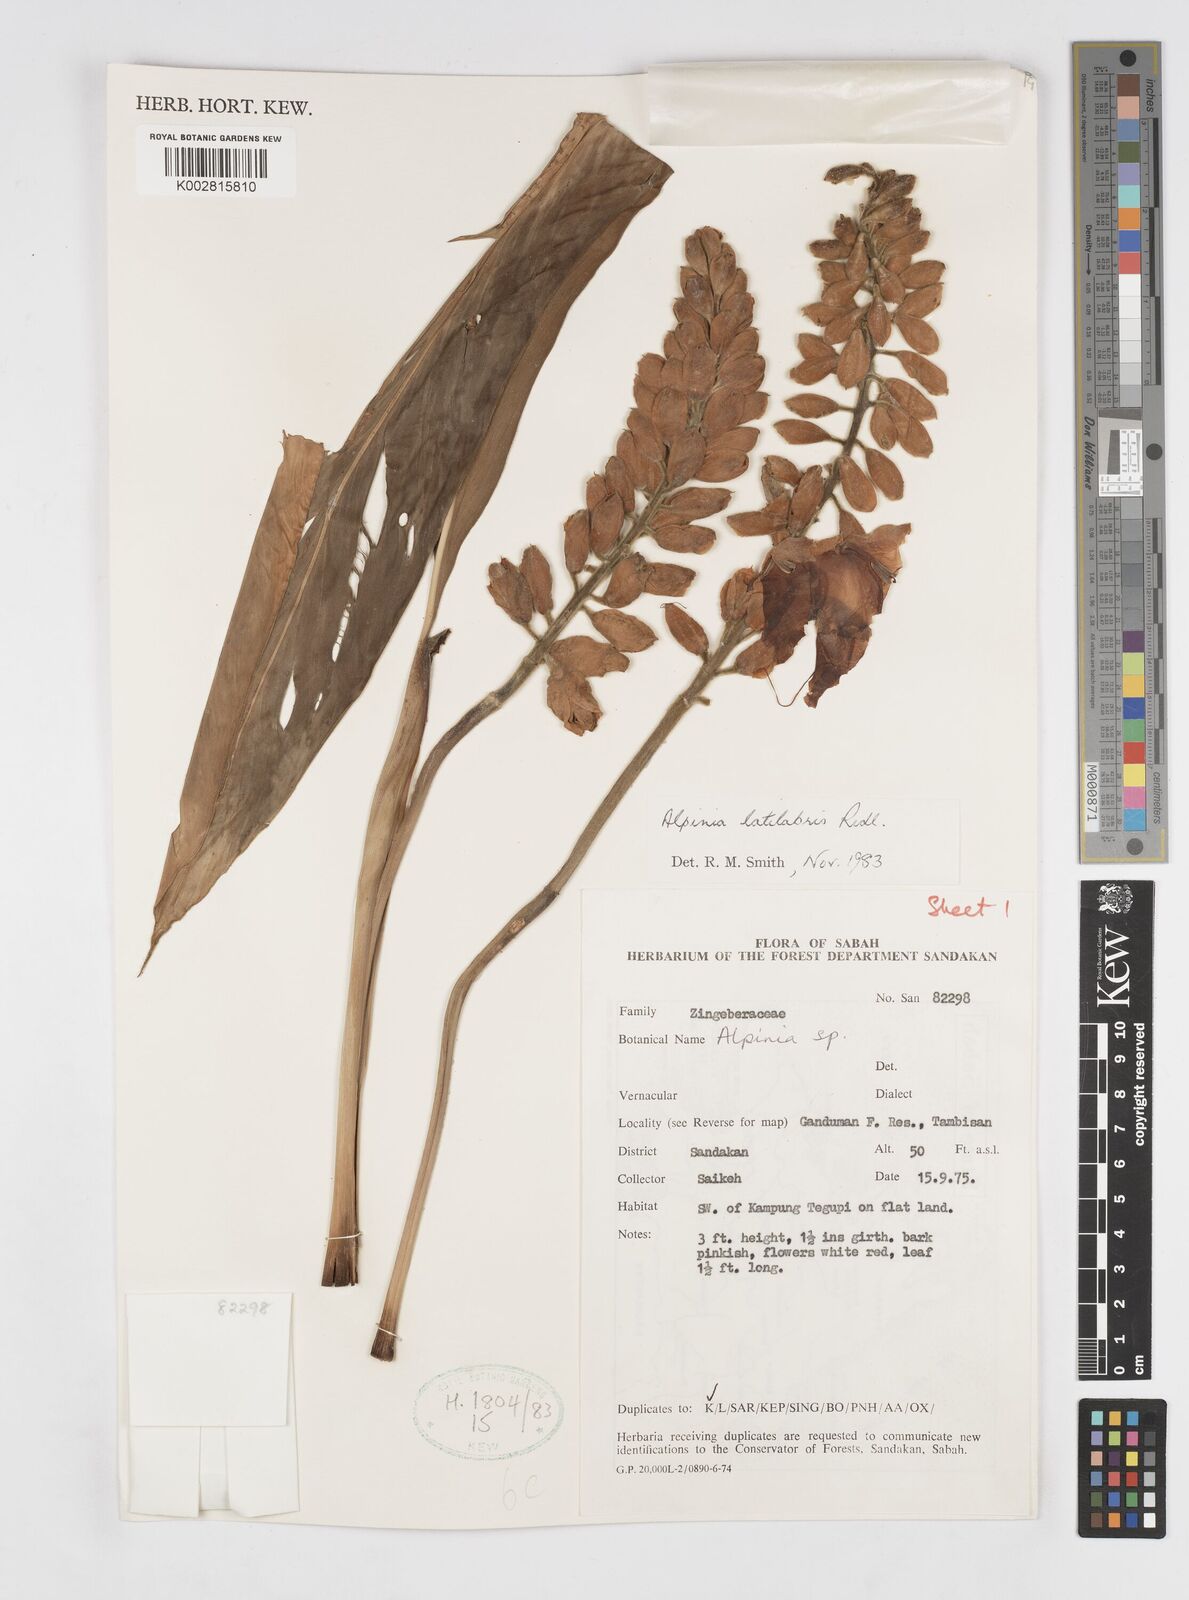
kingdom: Plantae
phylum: Tracheophyta
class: Liliopsida
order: Zingiberales
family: Zingiberaceae
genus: Alpinia
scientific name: Alpinia latilabris
